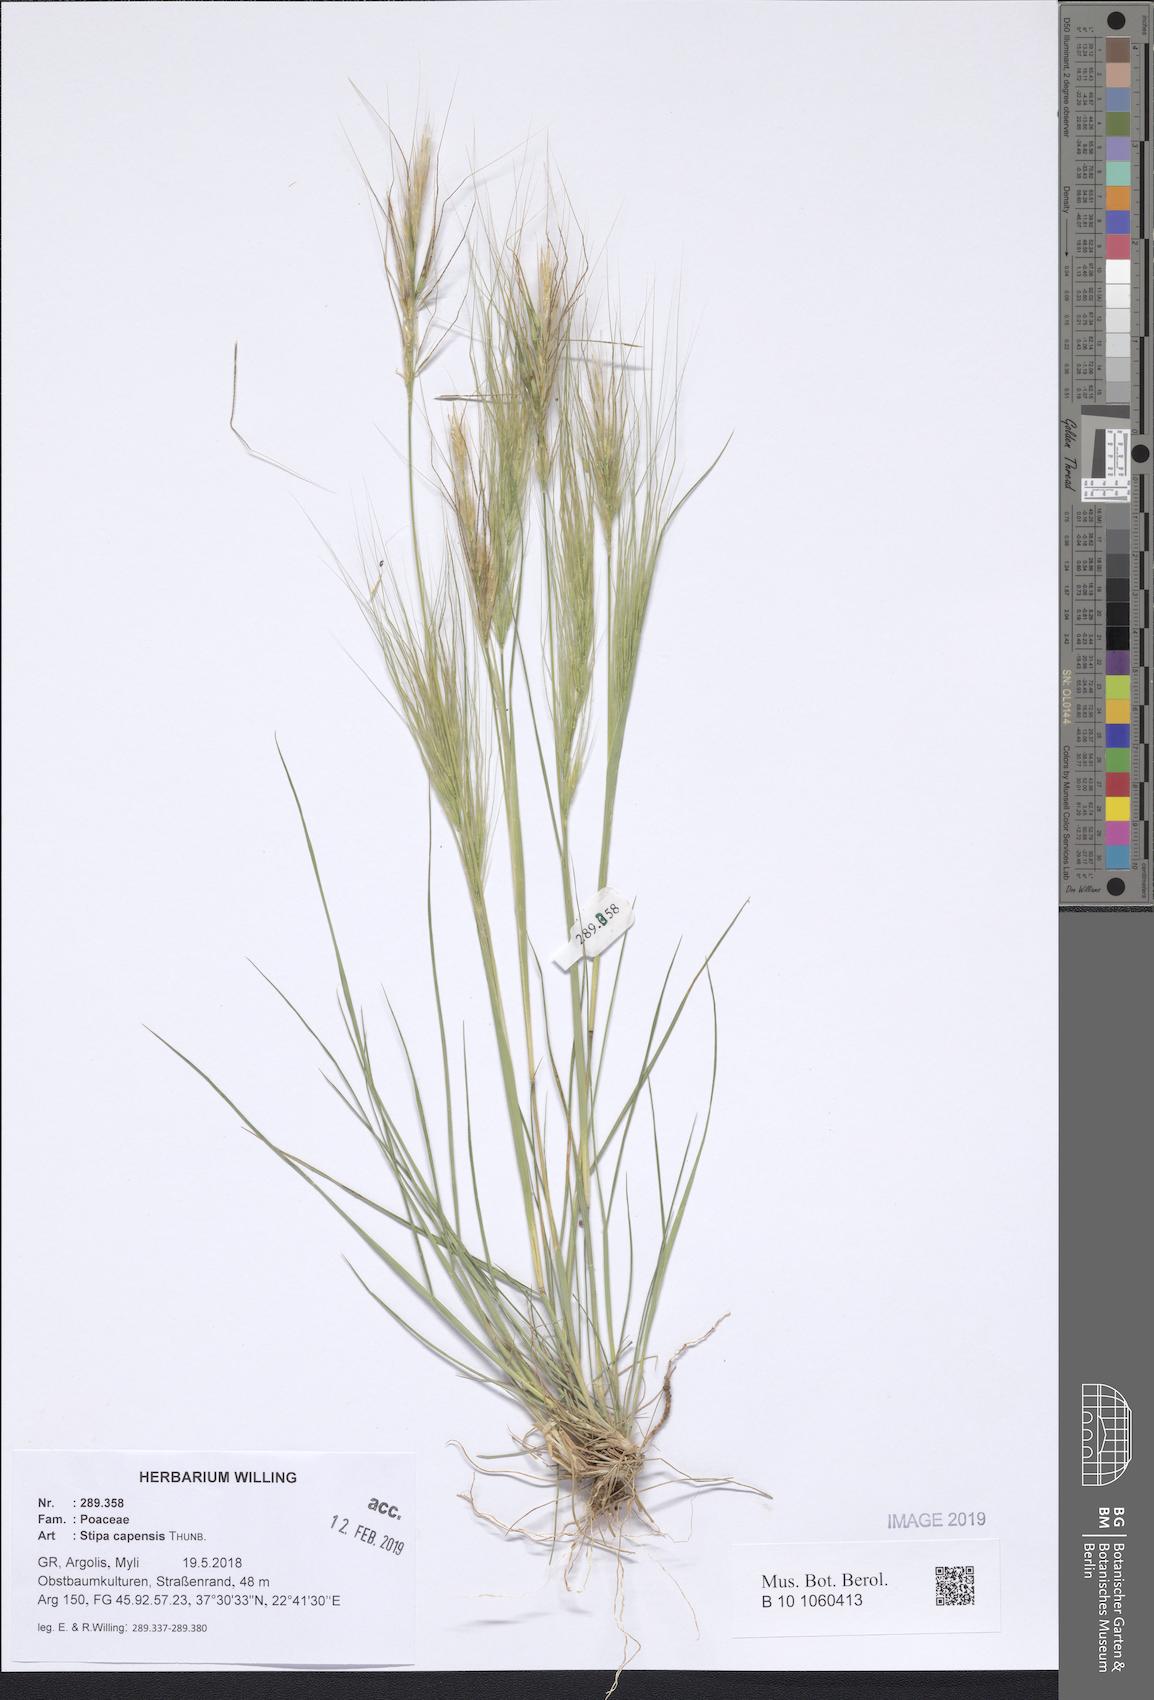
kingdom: Plantae
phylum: Tracheophyta
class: Liliopsida
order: Poales
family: Poaceae
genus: Stipellula
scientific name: Stipellula capensis
